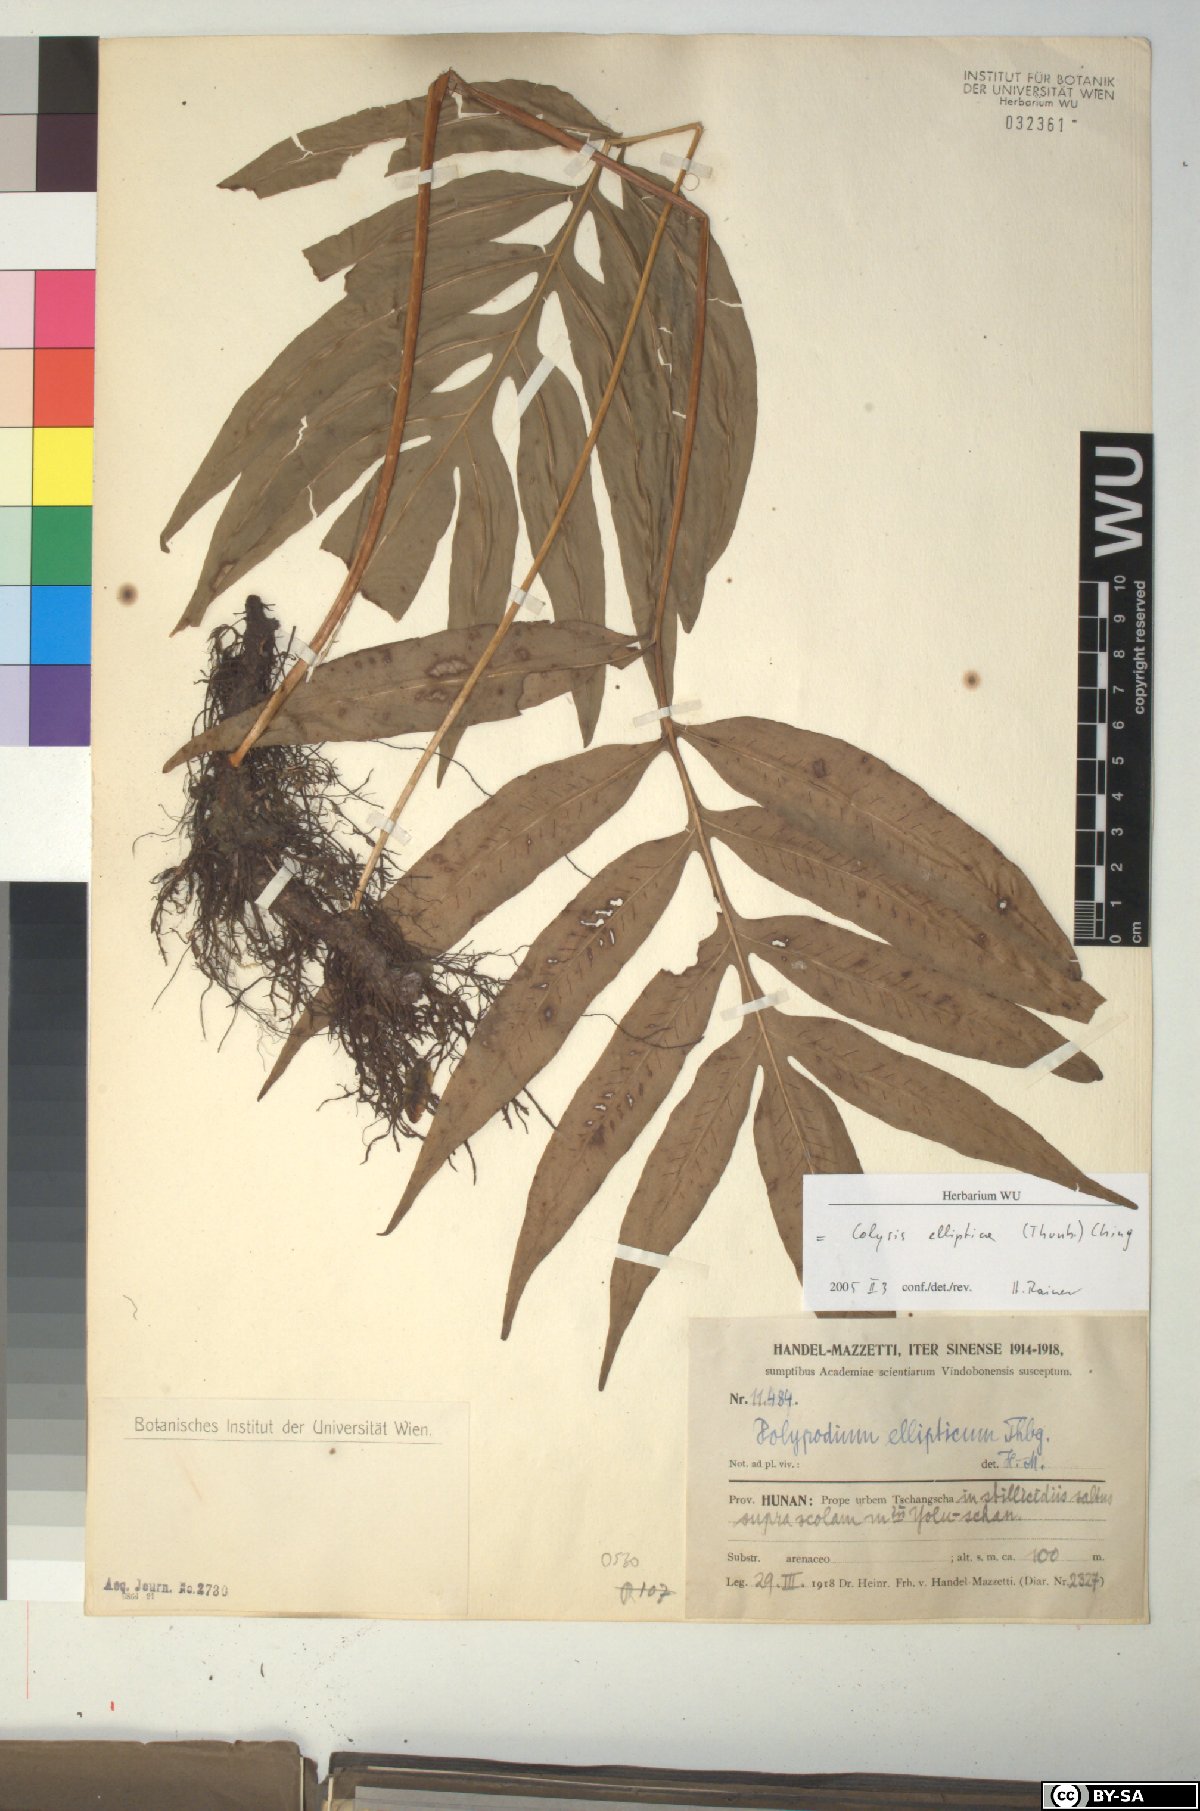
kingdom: Plantae
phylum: Tracheophyta
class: Polypodiopsida
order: Polypodiales
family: Polypodiaceae
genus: Leptochilus
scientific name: Leptochilus ellipticus
